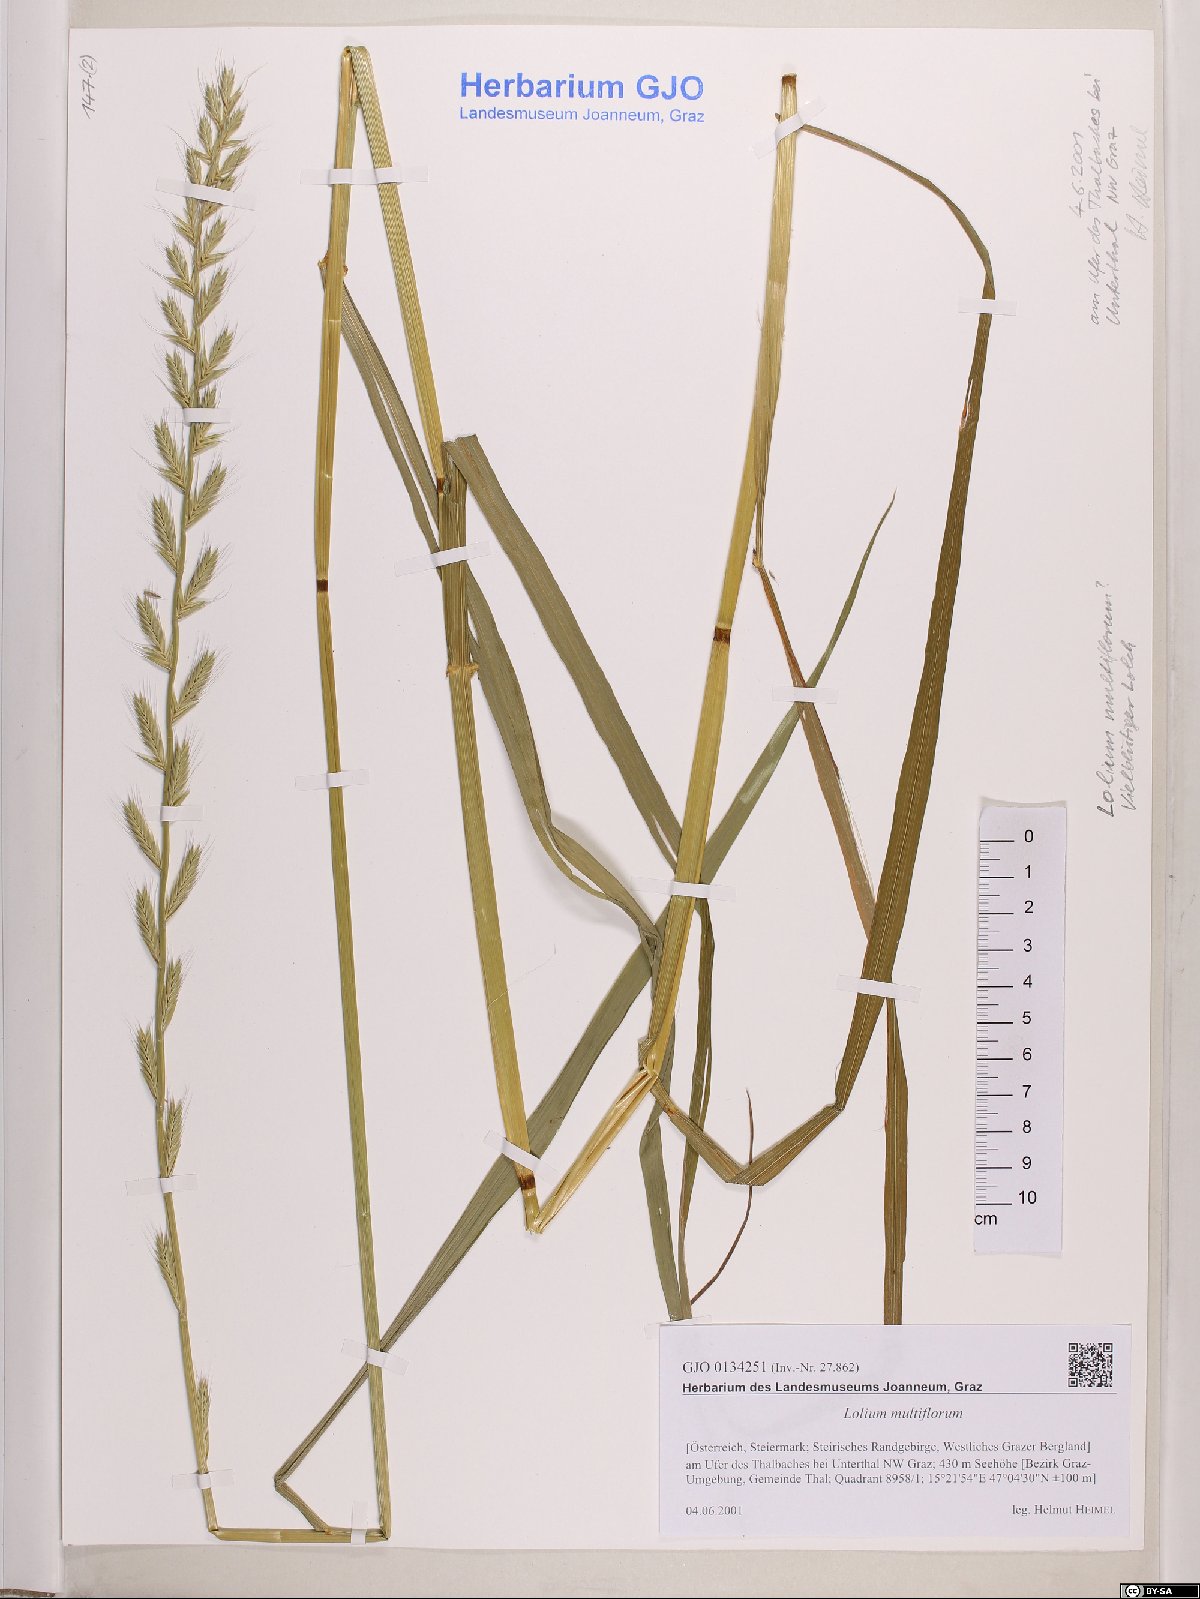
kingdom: Plantae
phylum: Tracheophyta
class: Liliopsida
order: Poales
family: Poaceae
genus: Lolium
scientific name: Lolium multiflorum
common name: Annual ryegrass
